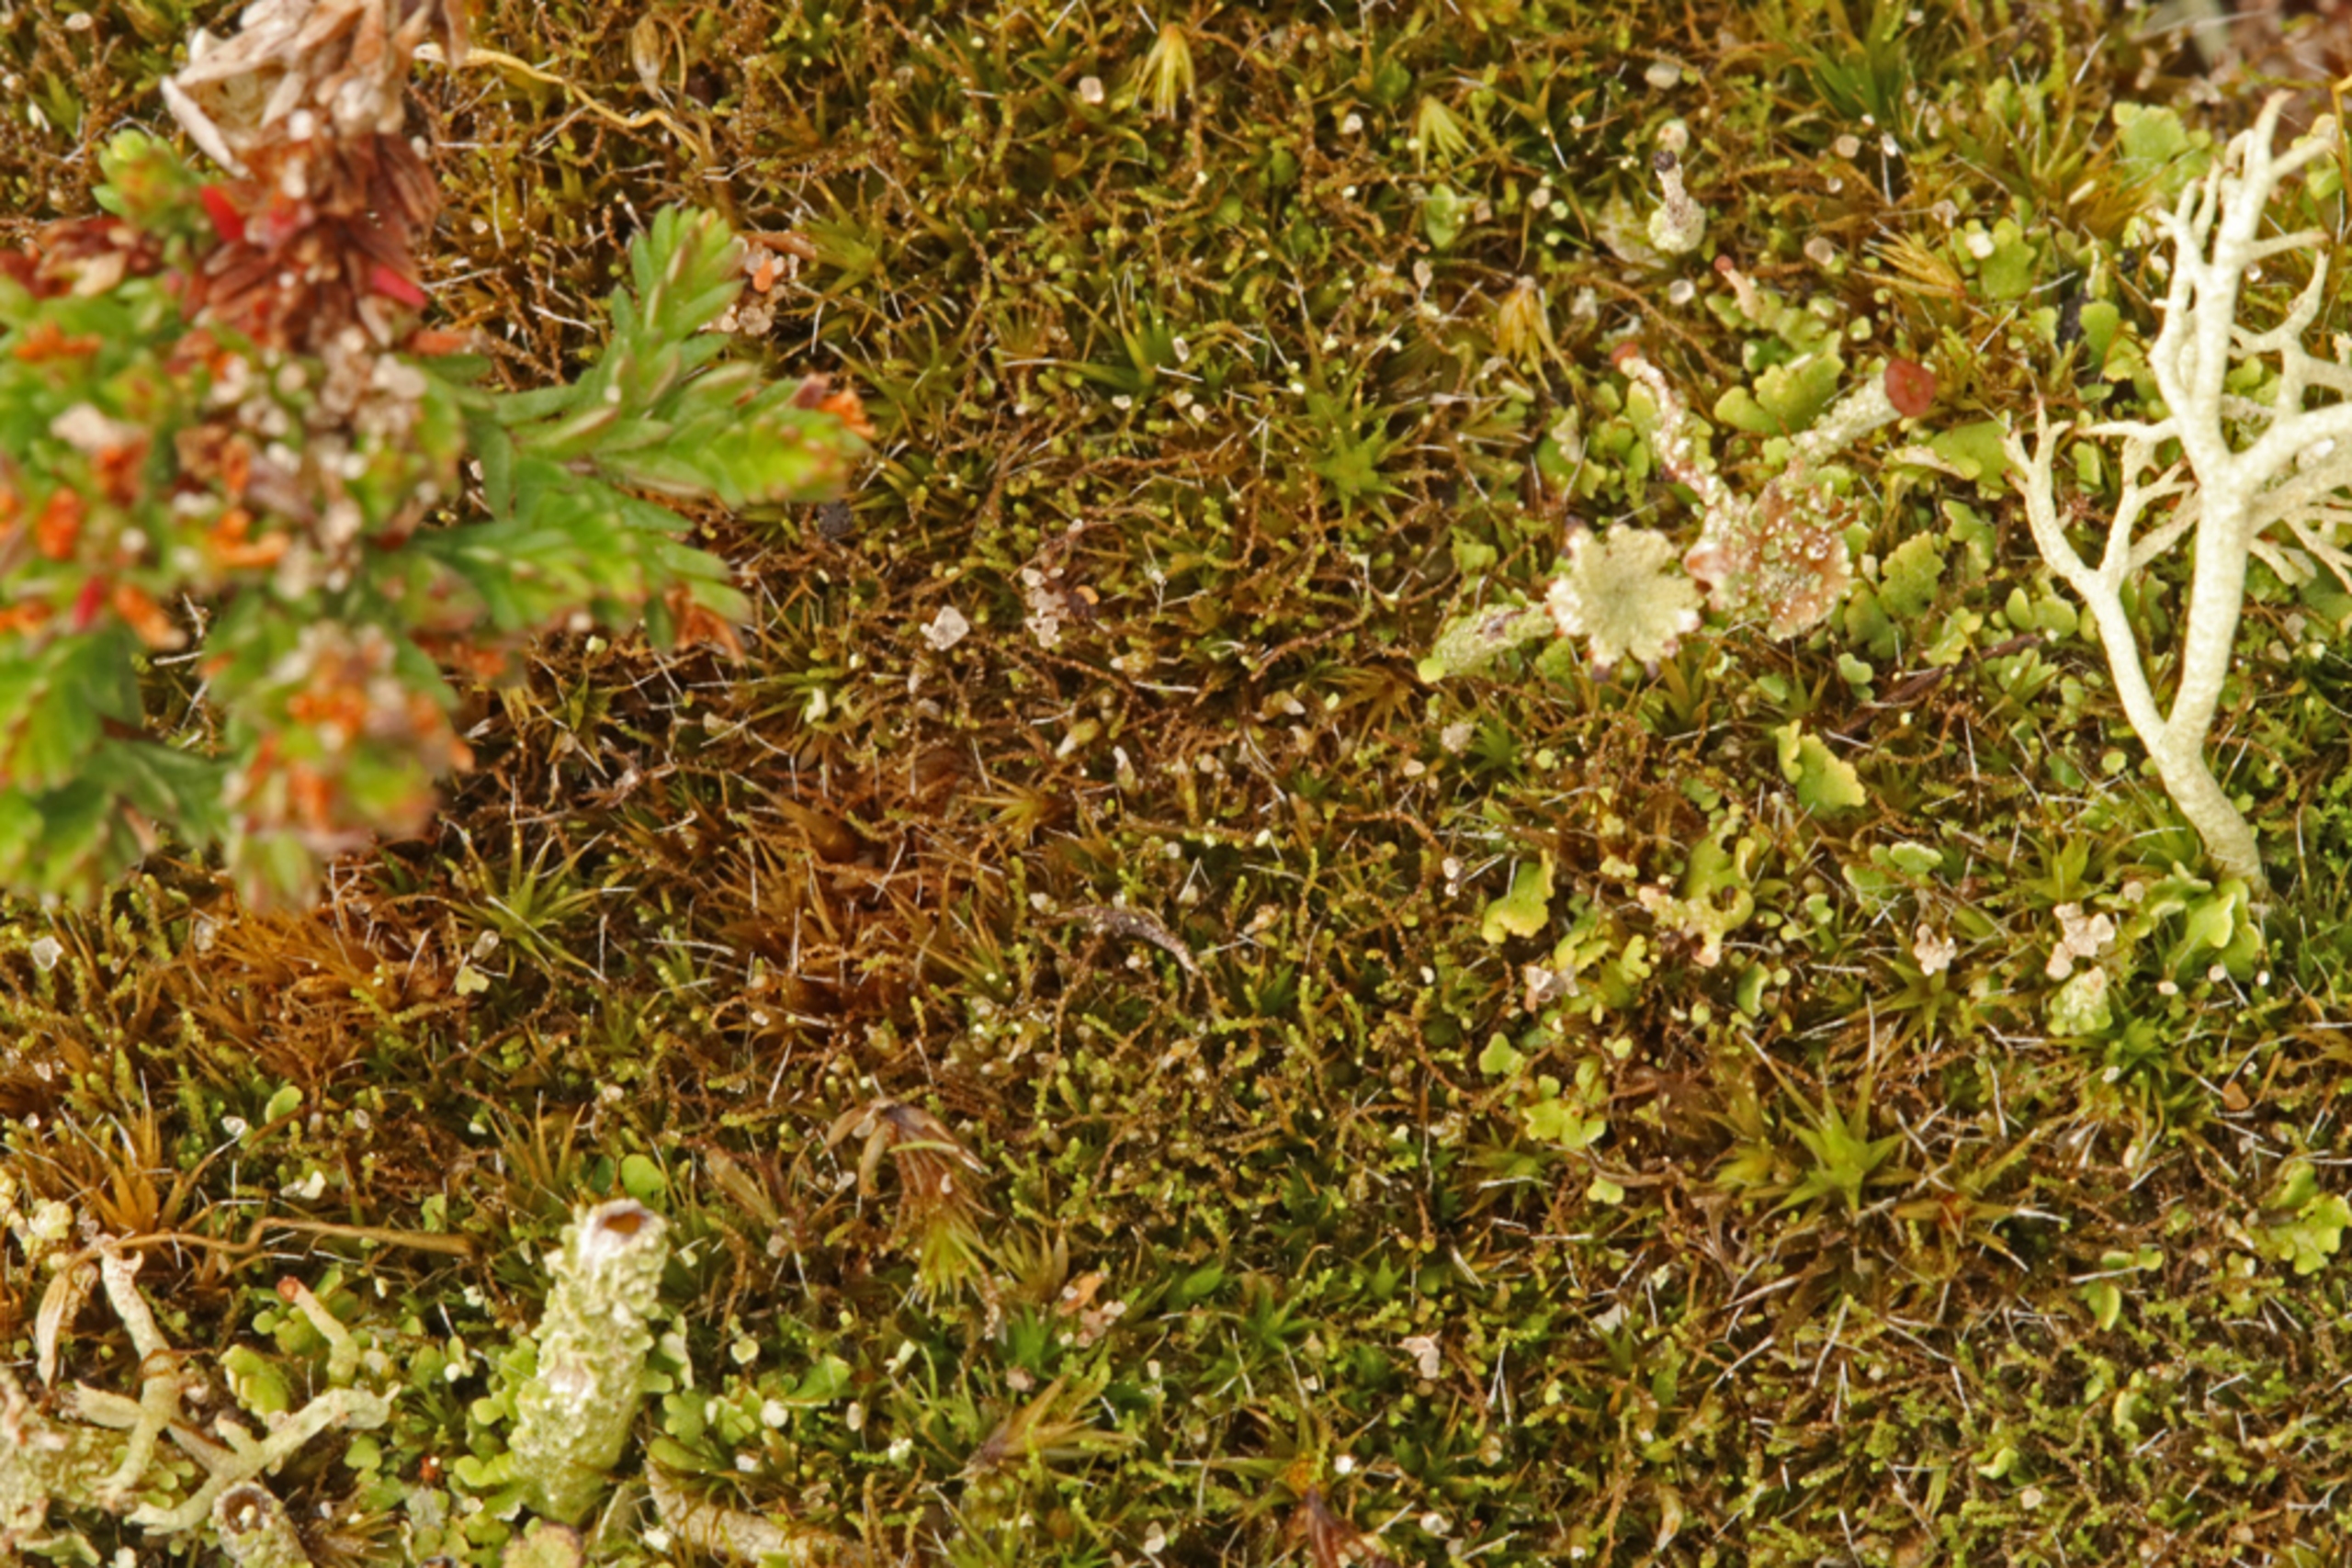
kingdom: Plantae
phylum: Marchantiophyta
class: Jungermanniopsida
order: Jungermanniales
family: Cephaloziellaceae
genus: Cephaloziella
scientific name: Cephaloziella divaricata
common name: Mørk dværgtråd
